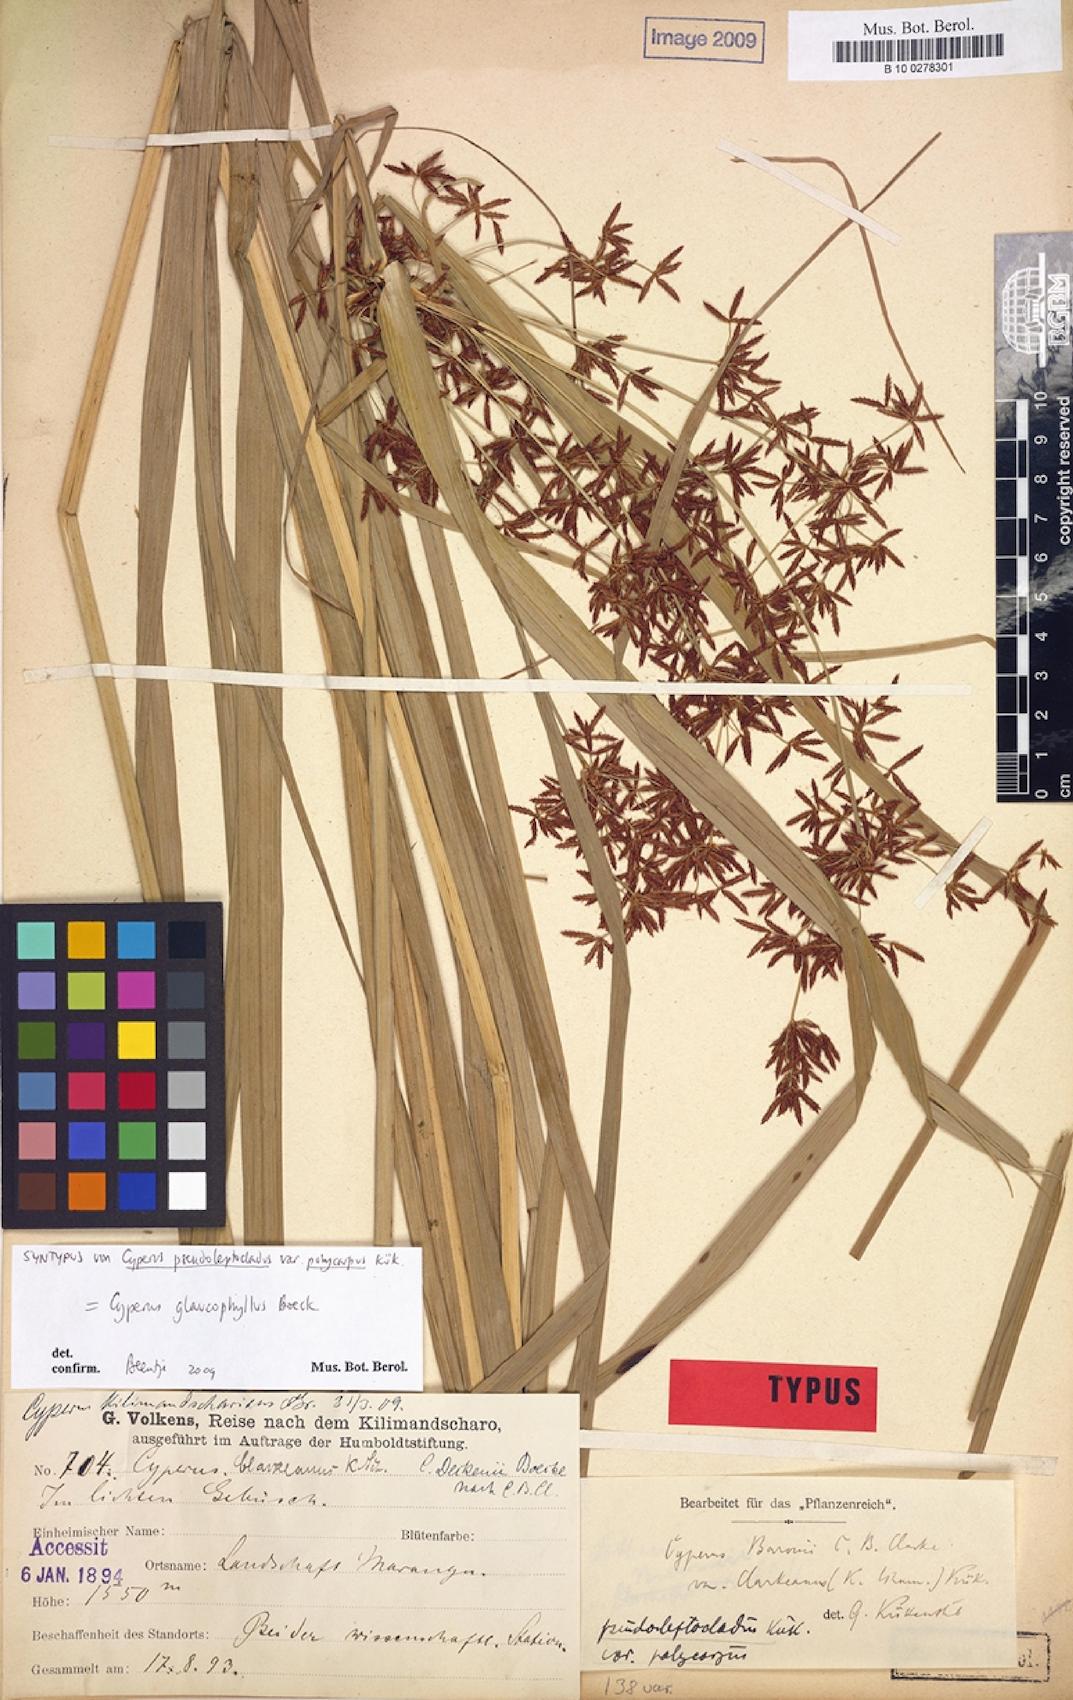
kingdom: Plantae
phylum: Tracheophyta
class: Liliopsida
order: Poales
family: Cyperaceae
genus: Cyperus
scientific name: Cyperus glaucophyllus
